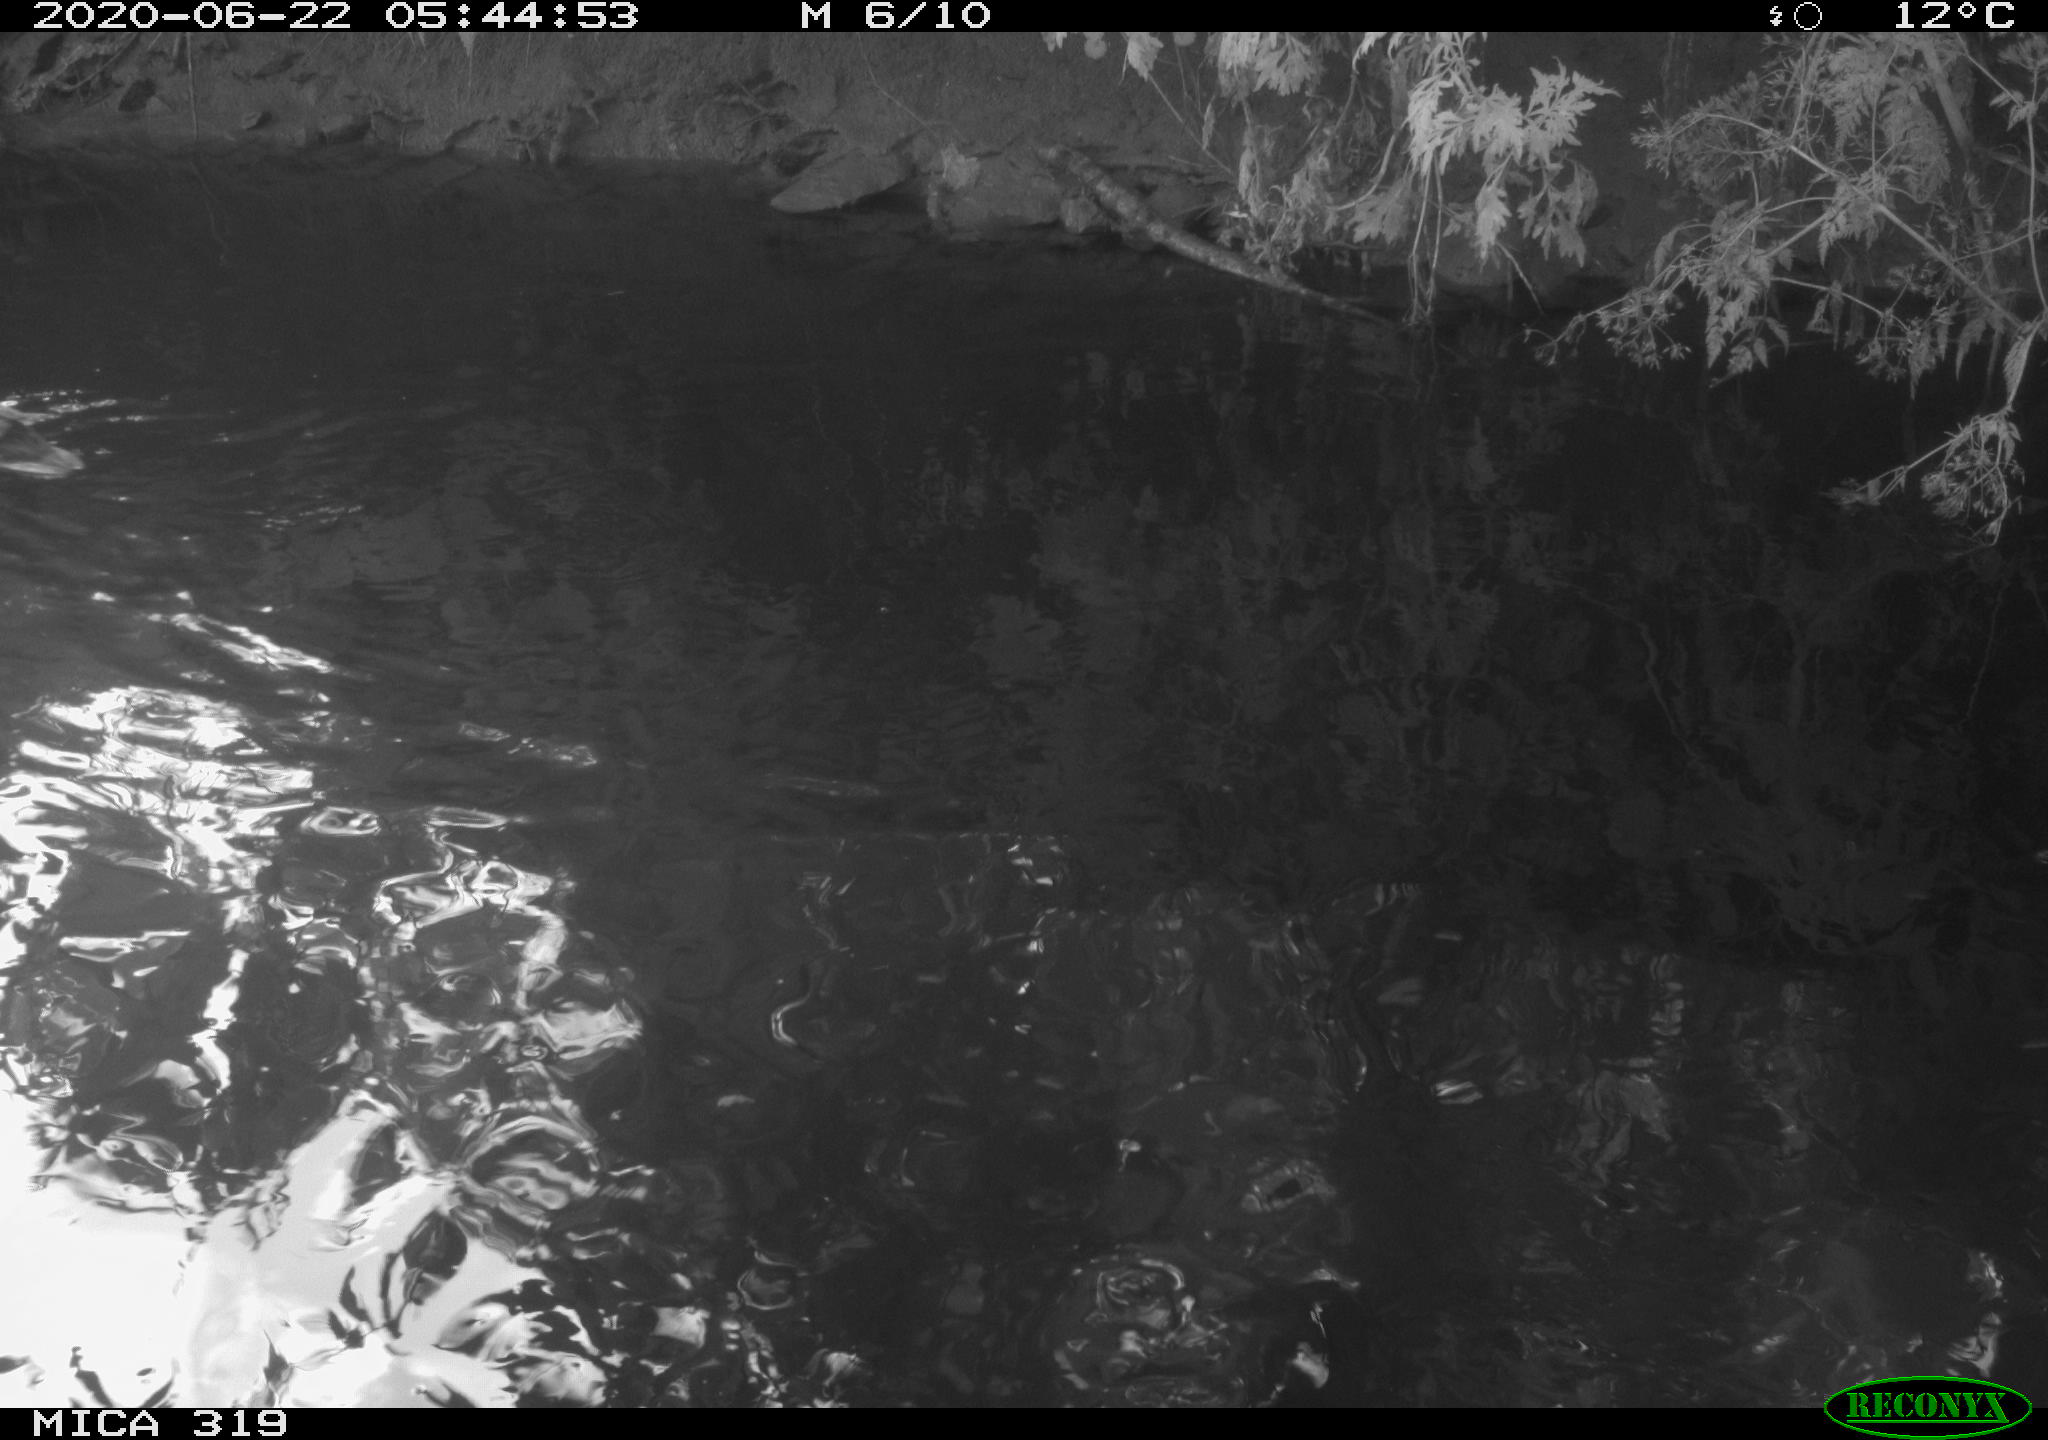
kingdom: Animalia
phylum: Chordata
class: Aves
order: Anseriformes
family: Anatidae
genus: Anas
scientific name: Anas platyrhynchos
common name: Mallard
